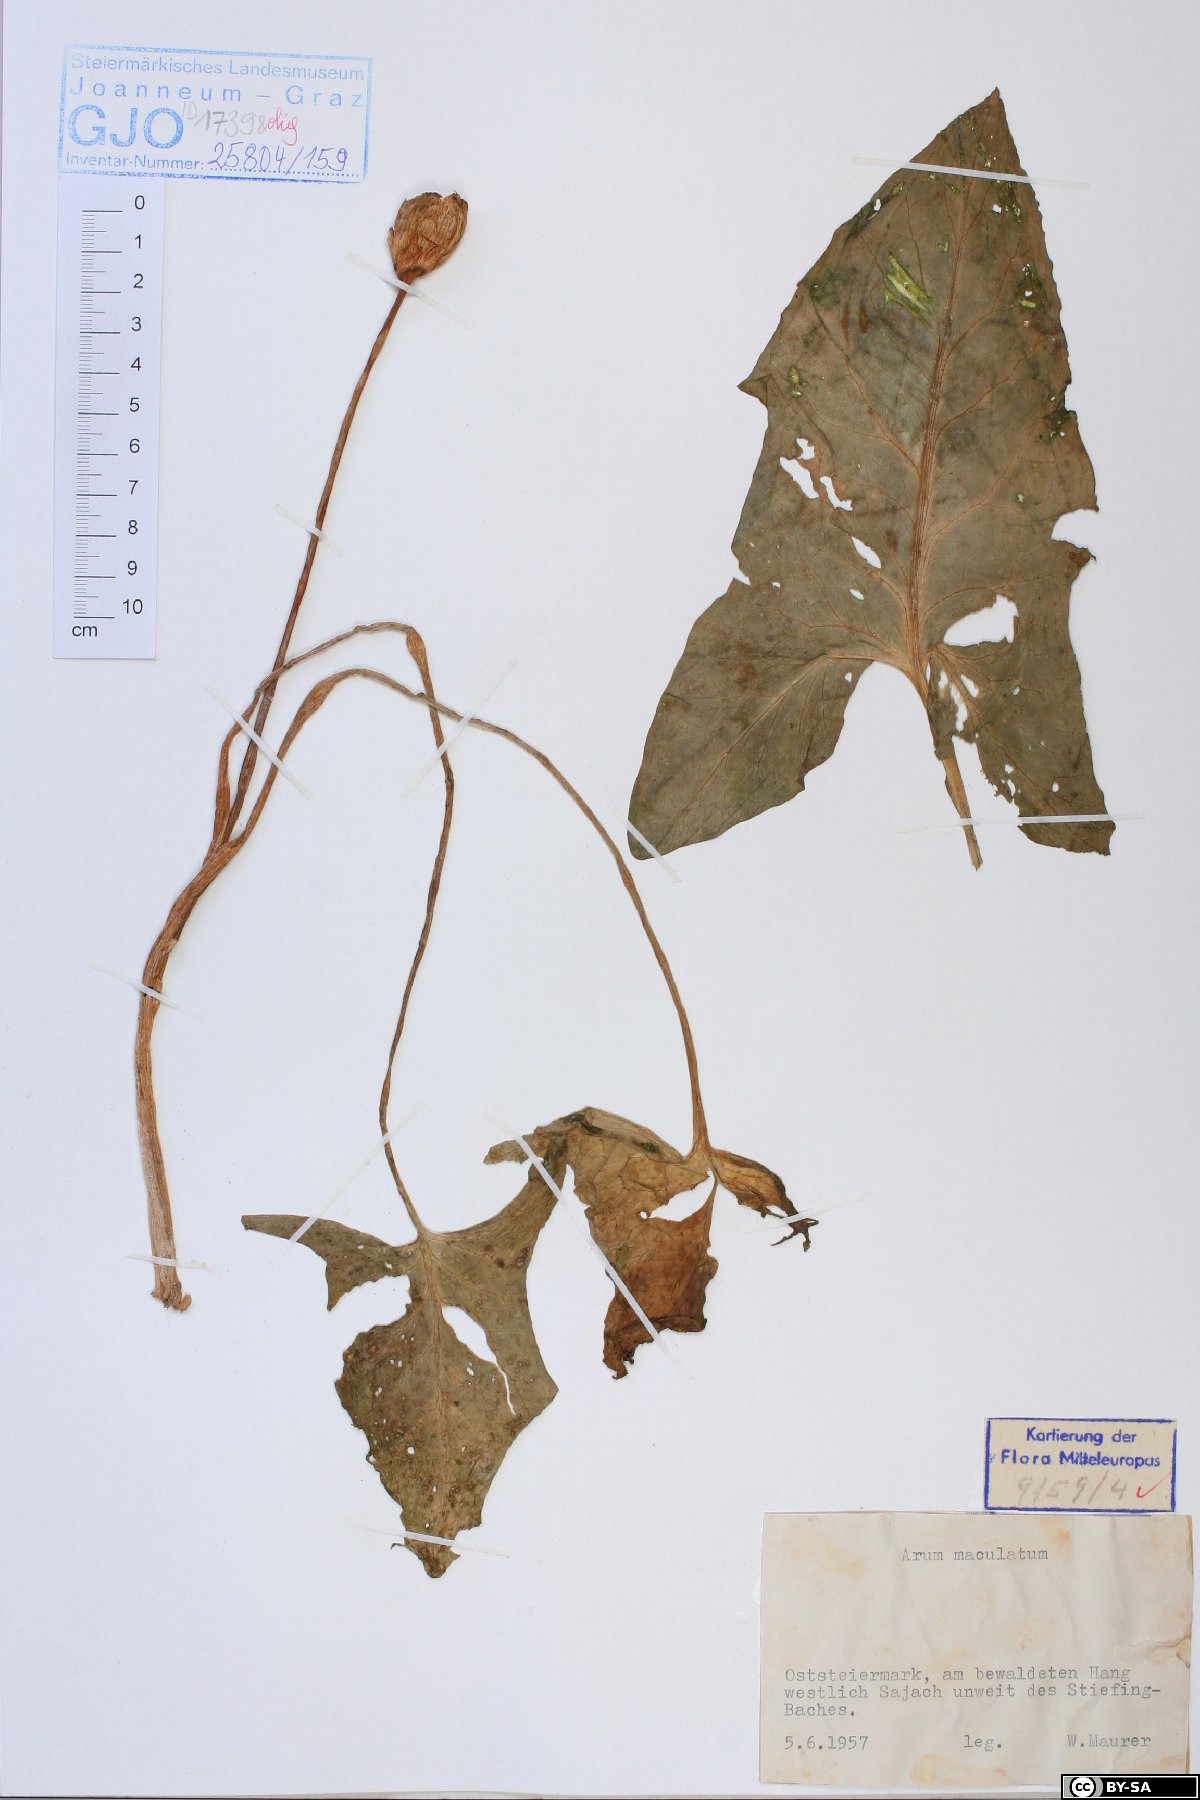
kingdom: Plantae
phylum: Tracheophyta
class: Liliopsida
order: Alismatales
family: Araceae
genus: Arum
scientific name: Arum maculatum
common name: Lords-and-ladies
